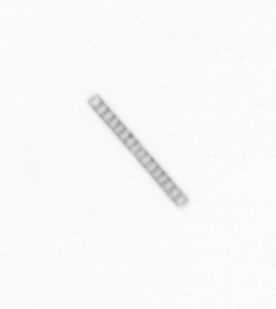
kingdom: Chromista
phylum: Ochrophyta
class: Bacillariophyceae
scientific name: Bacillariophyceae
